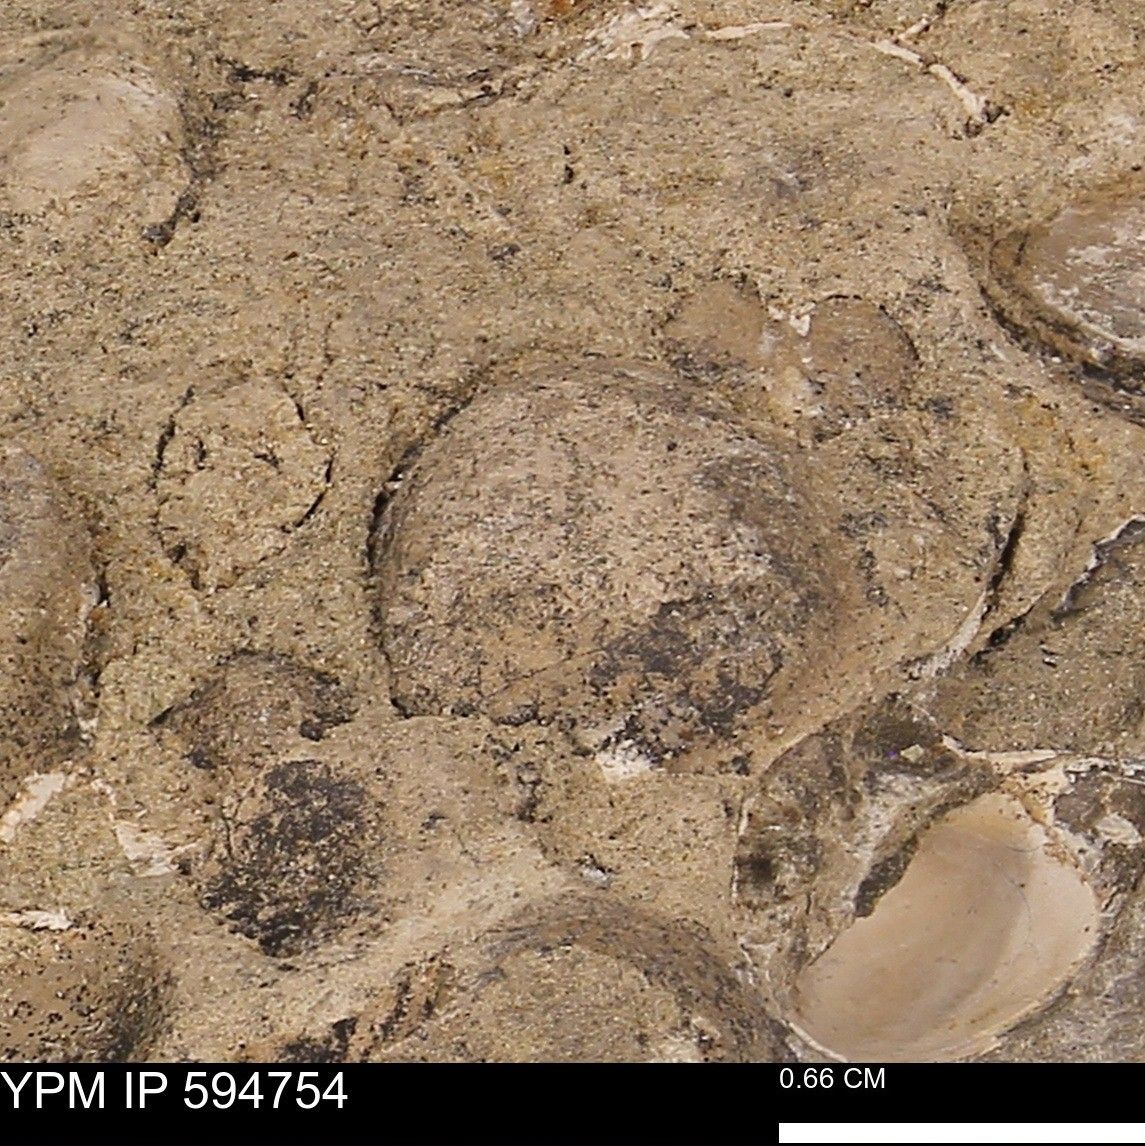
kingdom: Animalia
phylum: Mollusca
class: Bivalvia
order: Cardiida
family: Cardiidae
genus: Protocardia
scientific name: Protocardia
